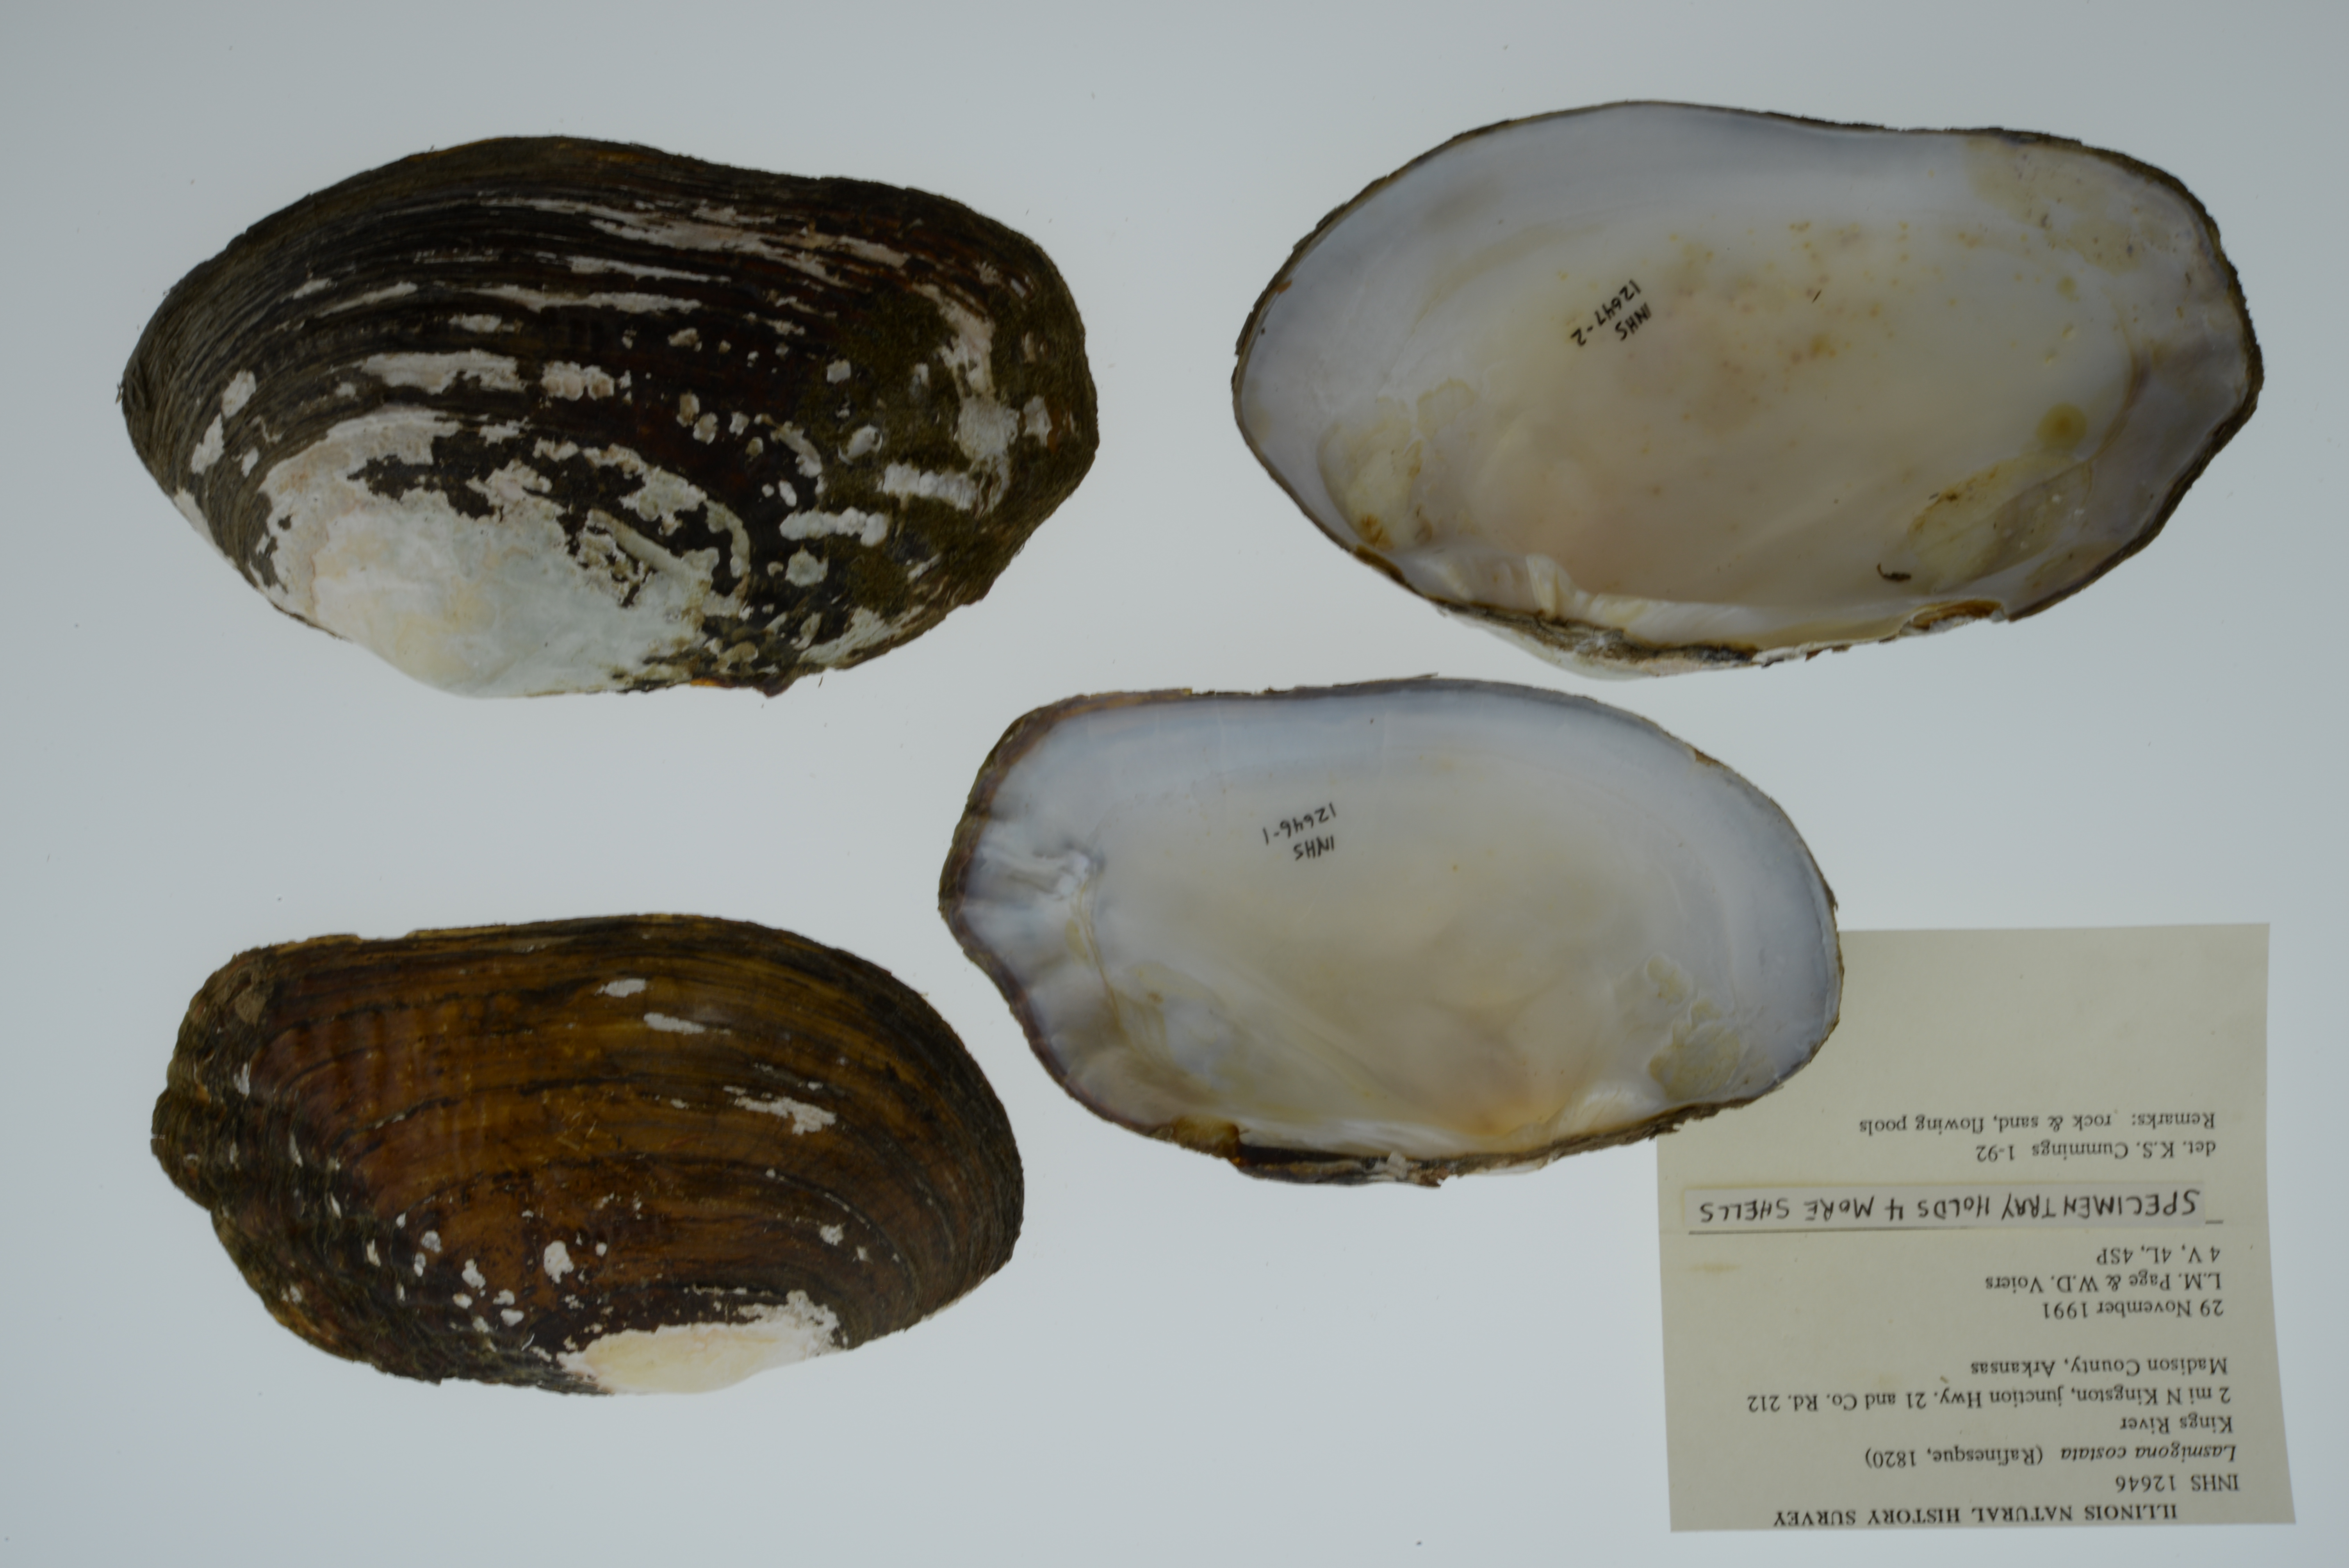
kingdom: Animalia
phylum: Mollusca
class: Bivalvia
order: Unionida
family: Unionidae
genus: Lasmigona
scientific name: Lasmigona costata
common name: Flutedshell
